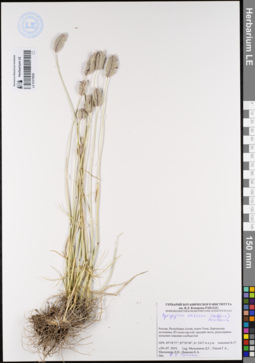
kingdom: Plantae
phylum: Tracheophyta
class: Liliopsida
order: Poales
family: Poaceae
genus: Agropyron
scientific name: Agropyron cristatum
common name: Crested wheatgrass
